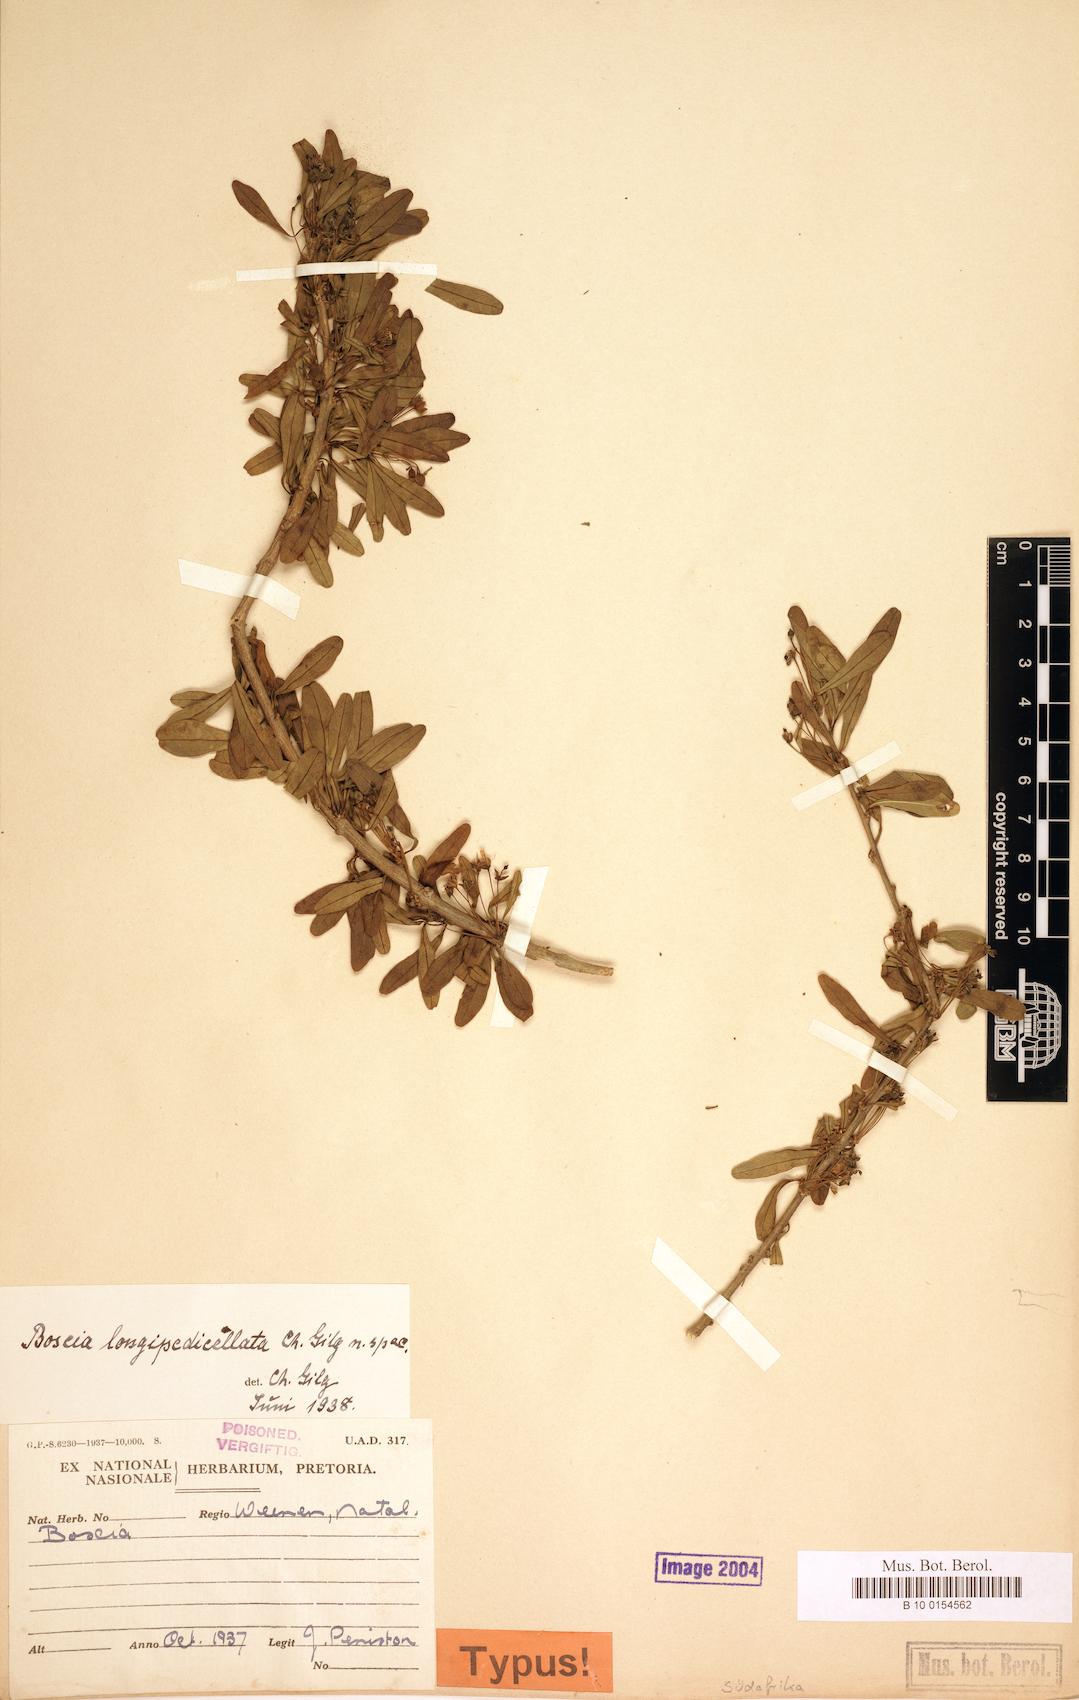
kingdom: Plantae
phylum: Tracheophyta
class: Magnoliopsida
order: Brassicales
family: Capparaceae
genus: Boscia
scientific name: Boscia foetida
